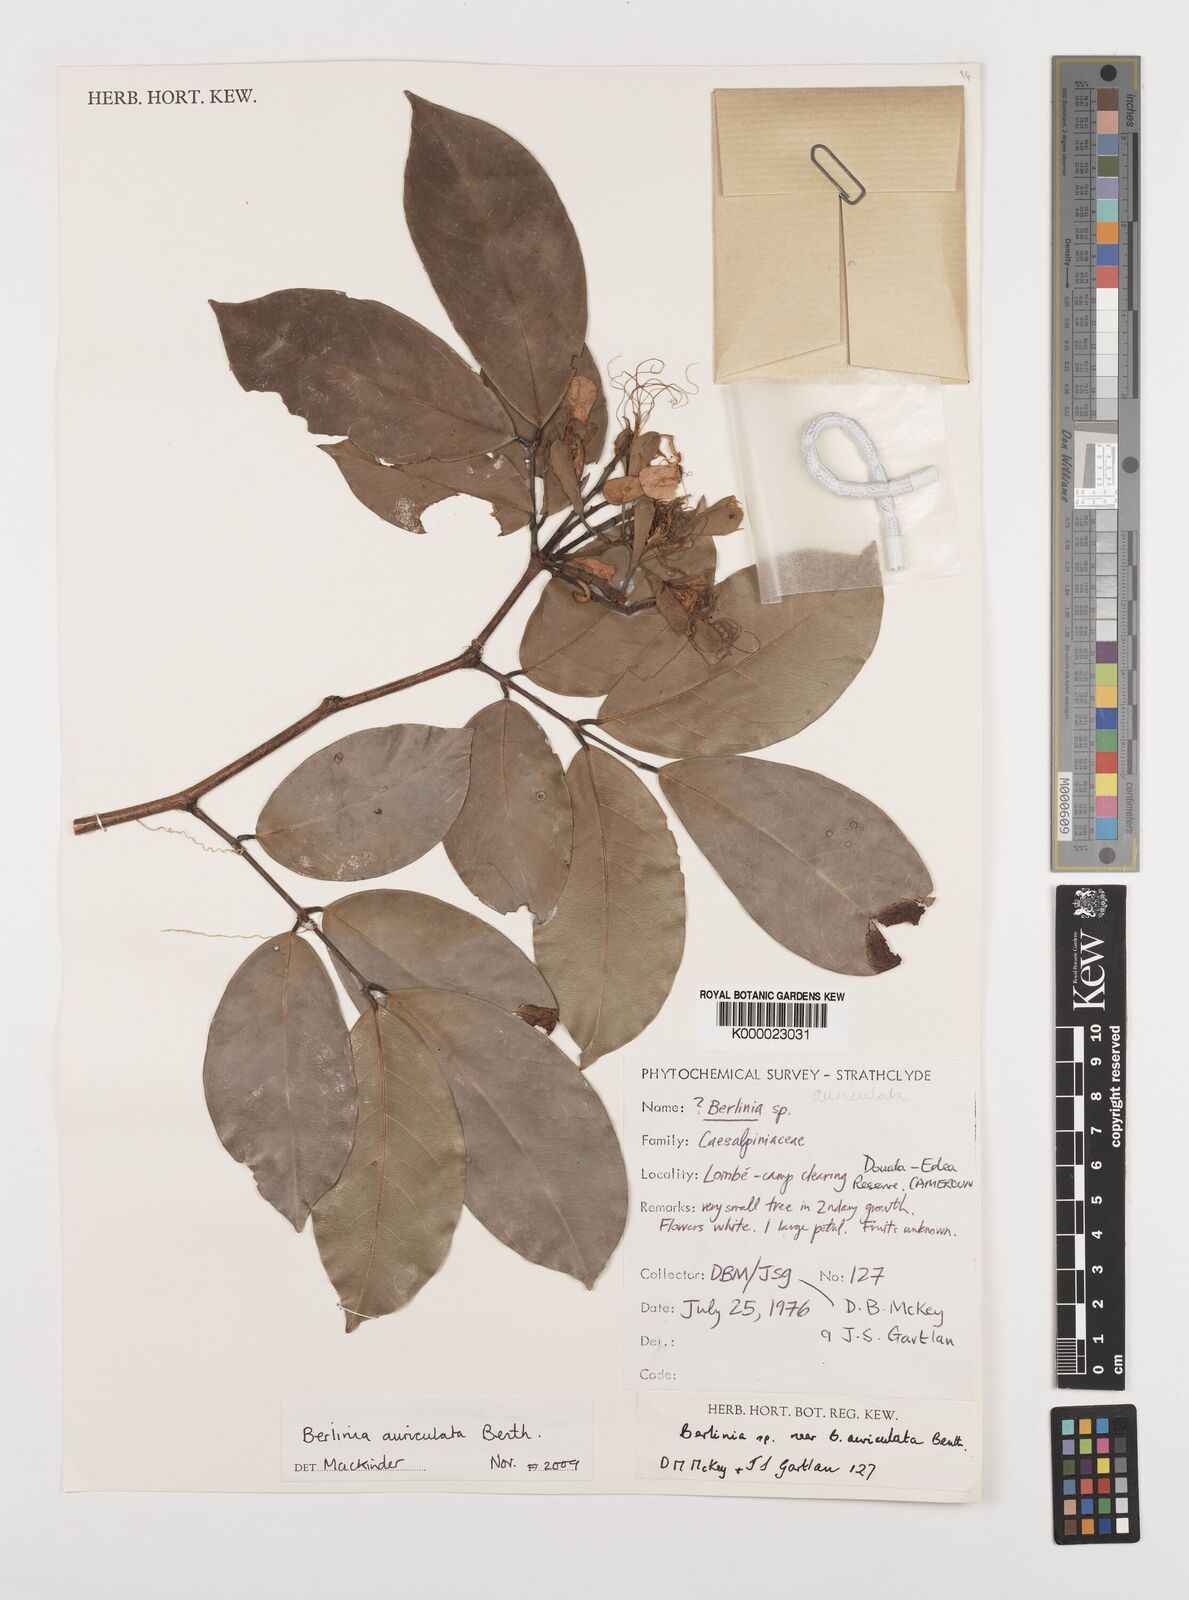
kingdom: Plantae
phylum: Tracheophyta
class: Magnoliopsida
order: Fabales
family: Fabaceae
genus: Berlinia
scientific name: Berlinia auriculata
